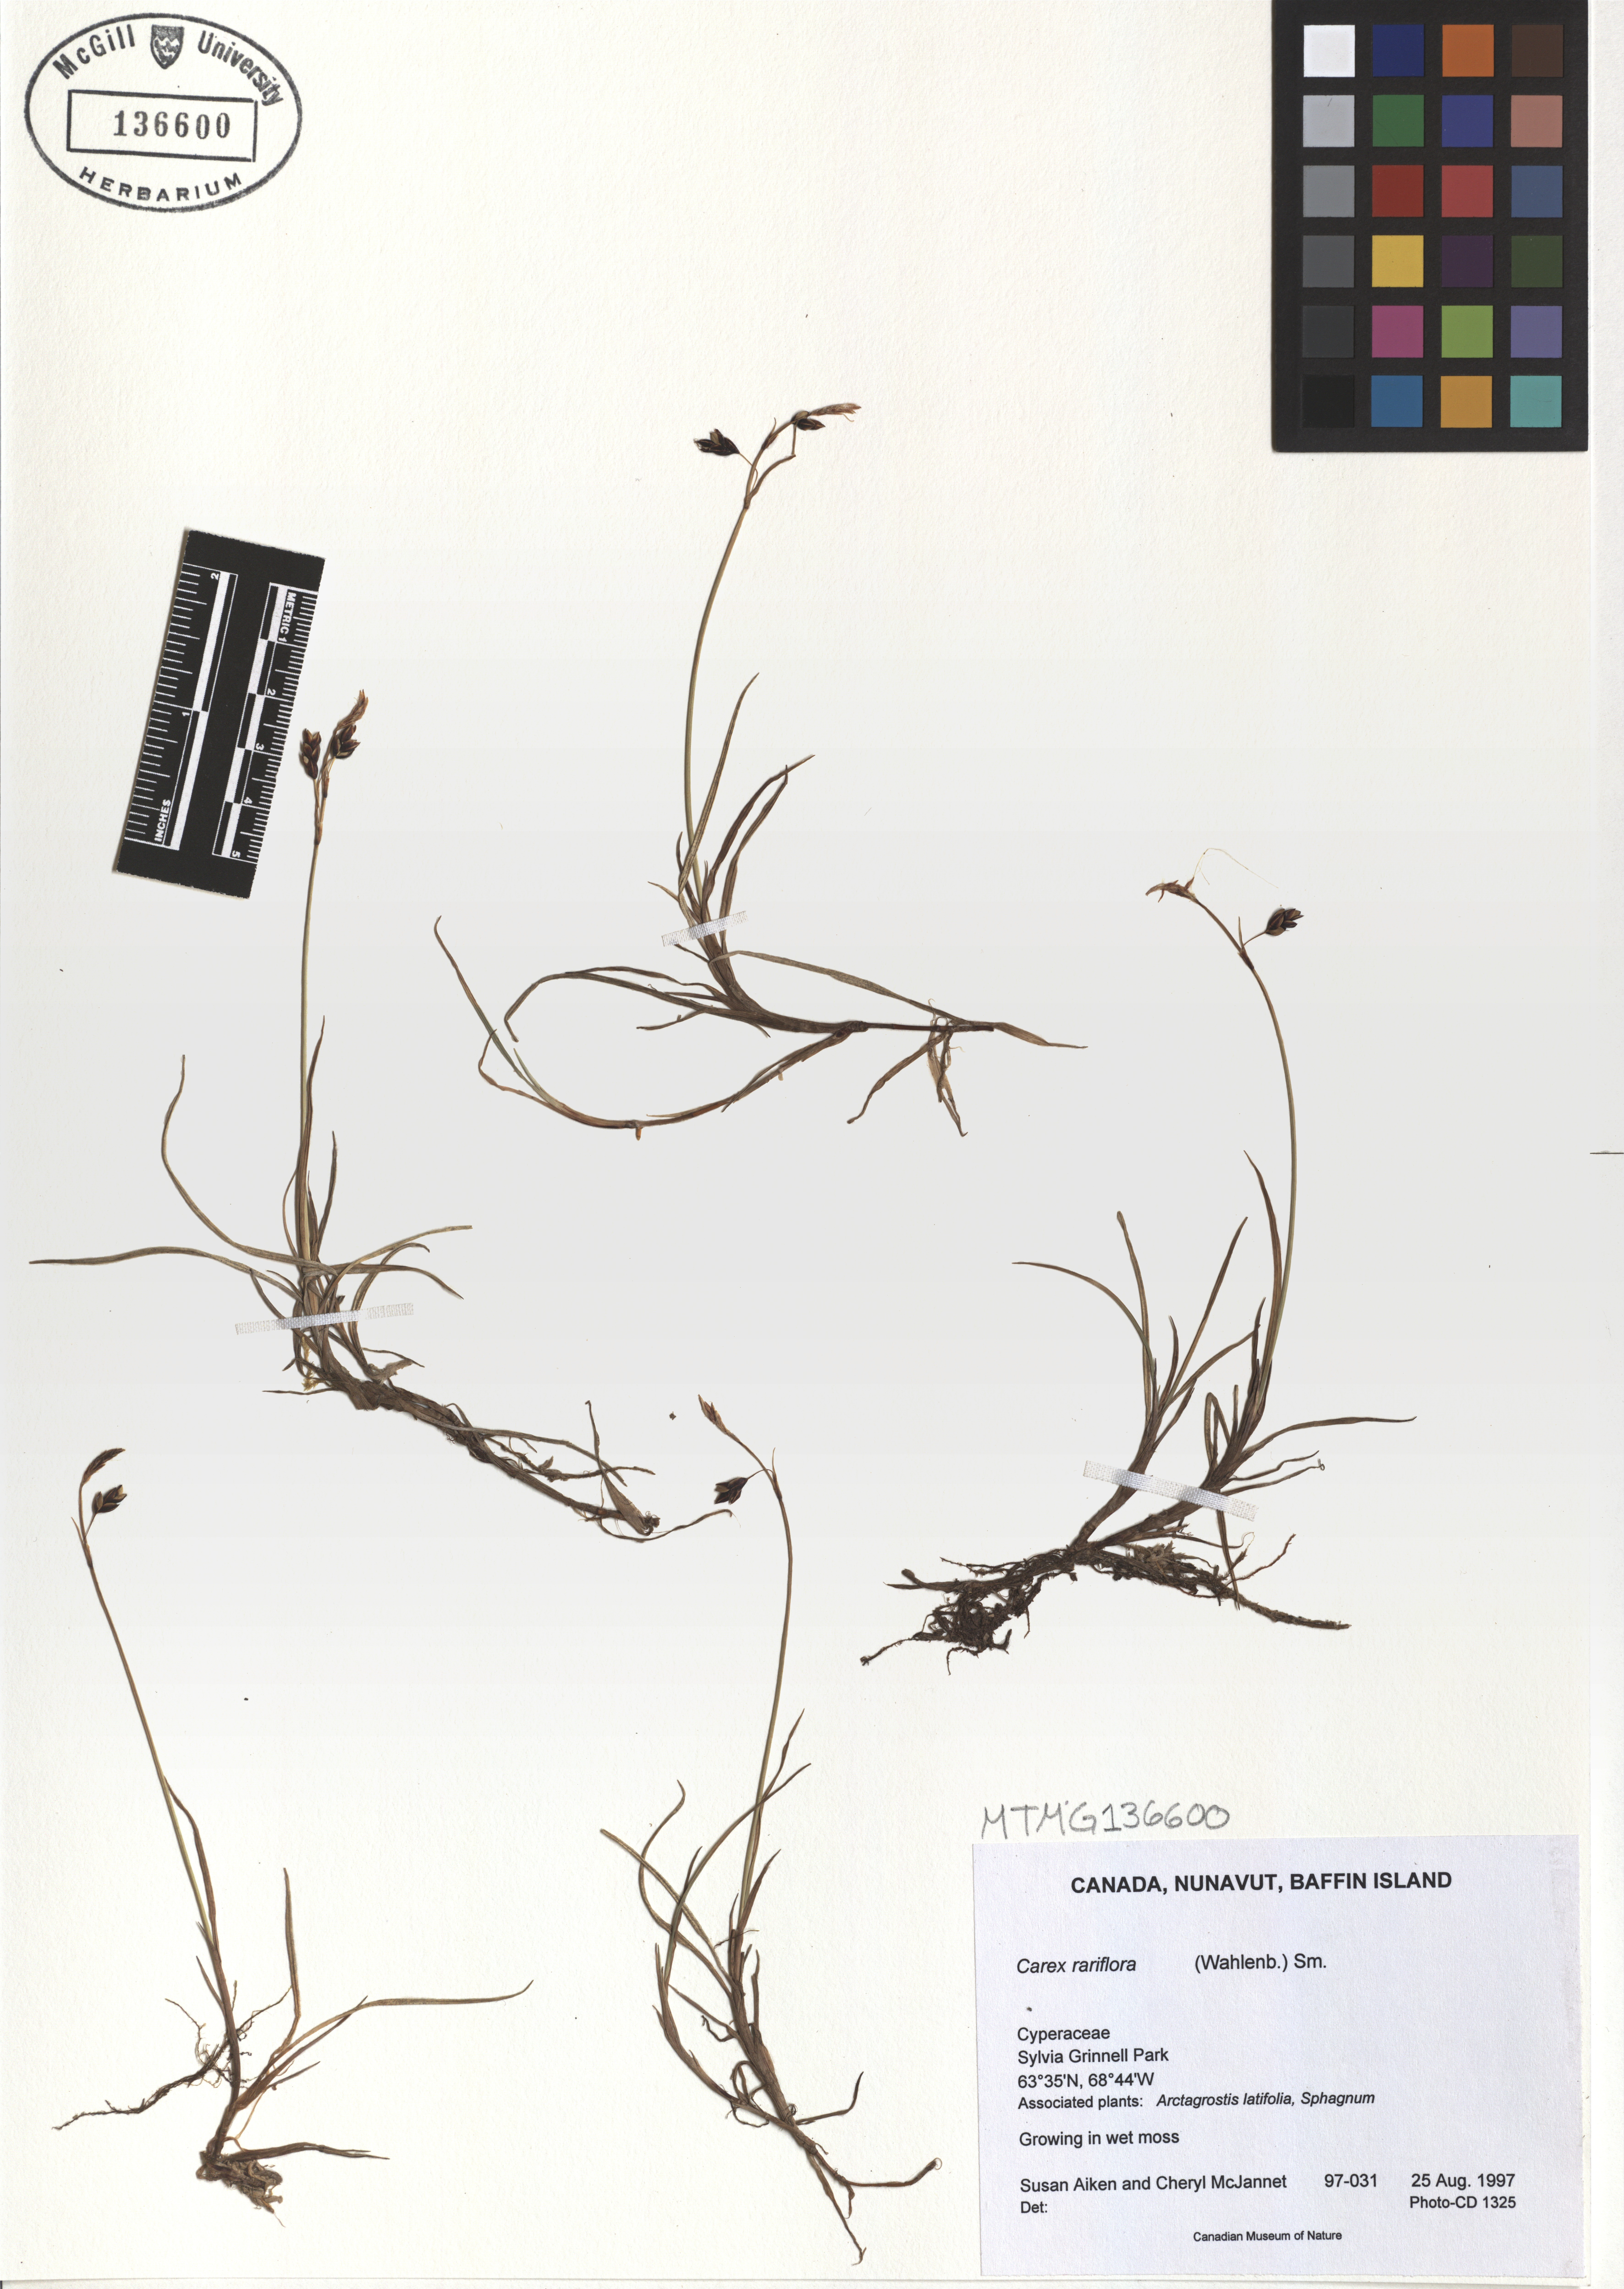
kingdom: Plantae
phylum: Tracheophyta
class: Liliopsida
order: Poales
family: Cyperaceae
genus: Carex
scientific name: Carex rariflora
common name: Loose-flowered alpine sedge
